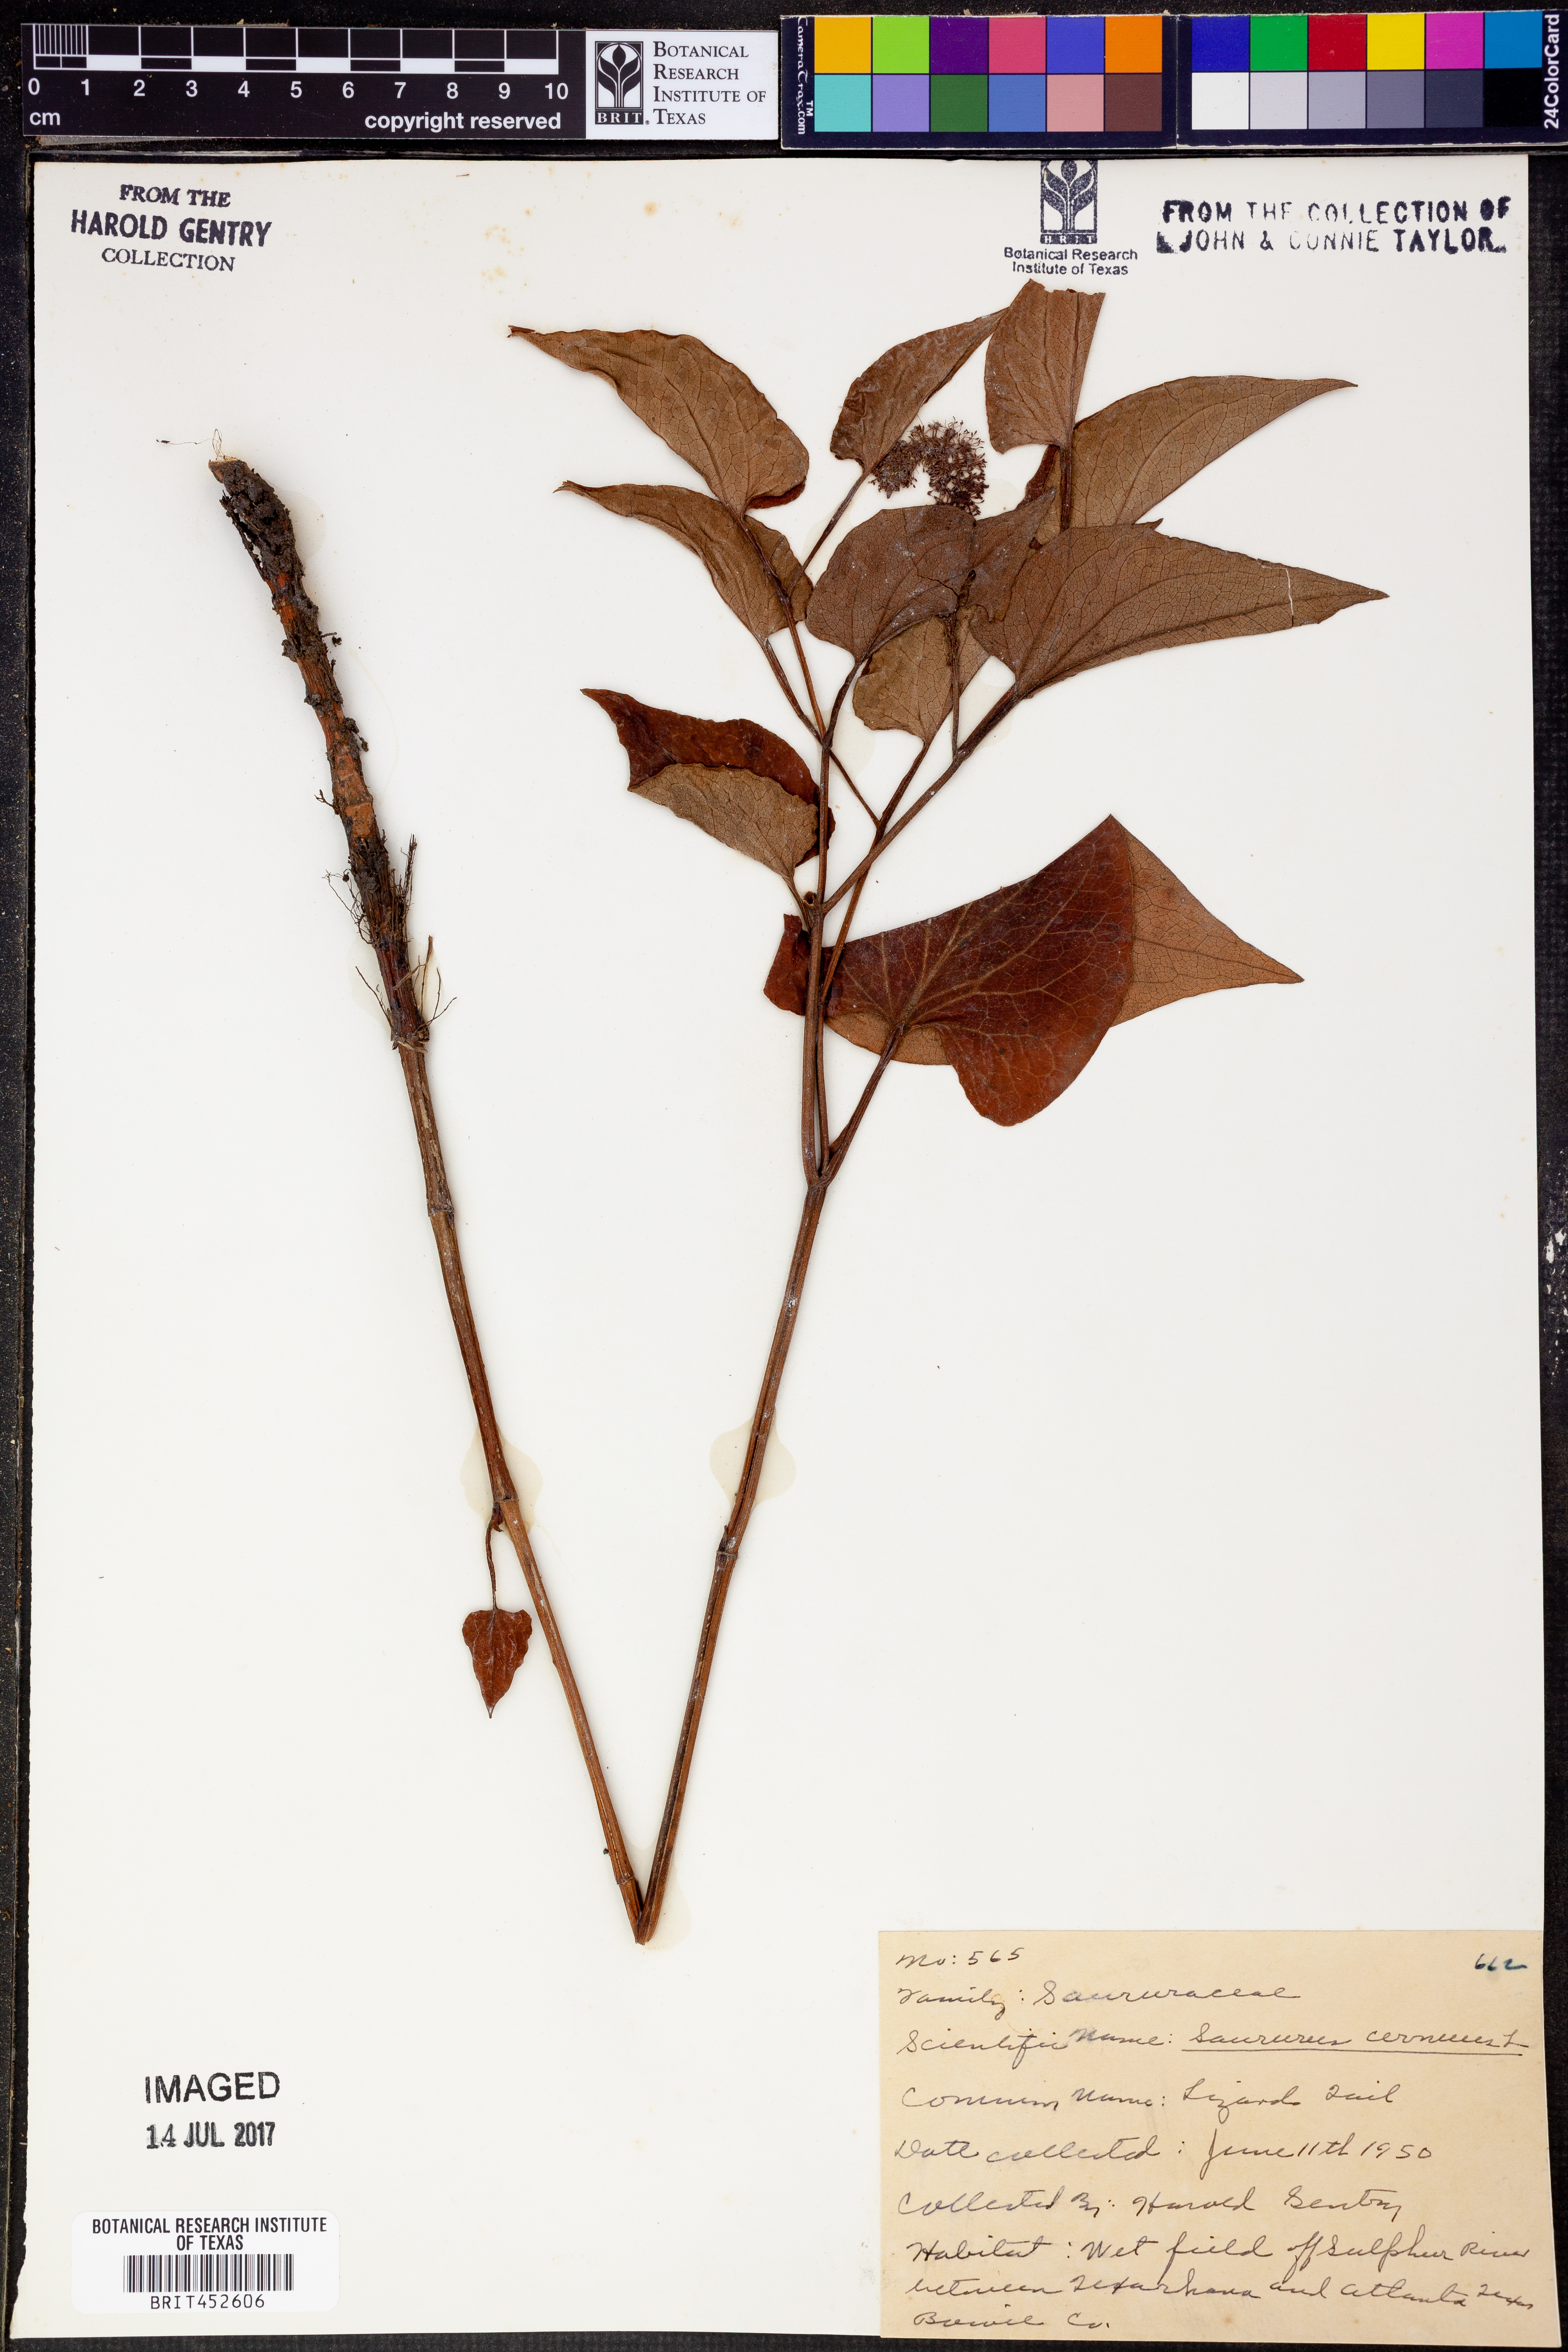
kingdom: Plantae
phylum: Tracheophyta
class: Magnoliopsida
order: Piperales
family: Saururaceae
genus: Saururus
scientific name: Saururus cernuus
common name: Lizard's-tail
